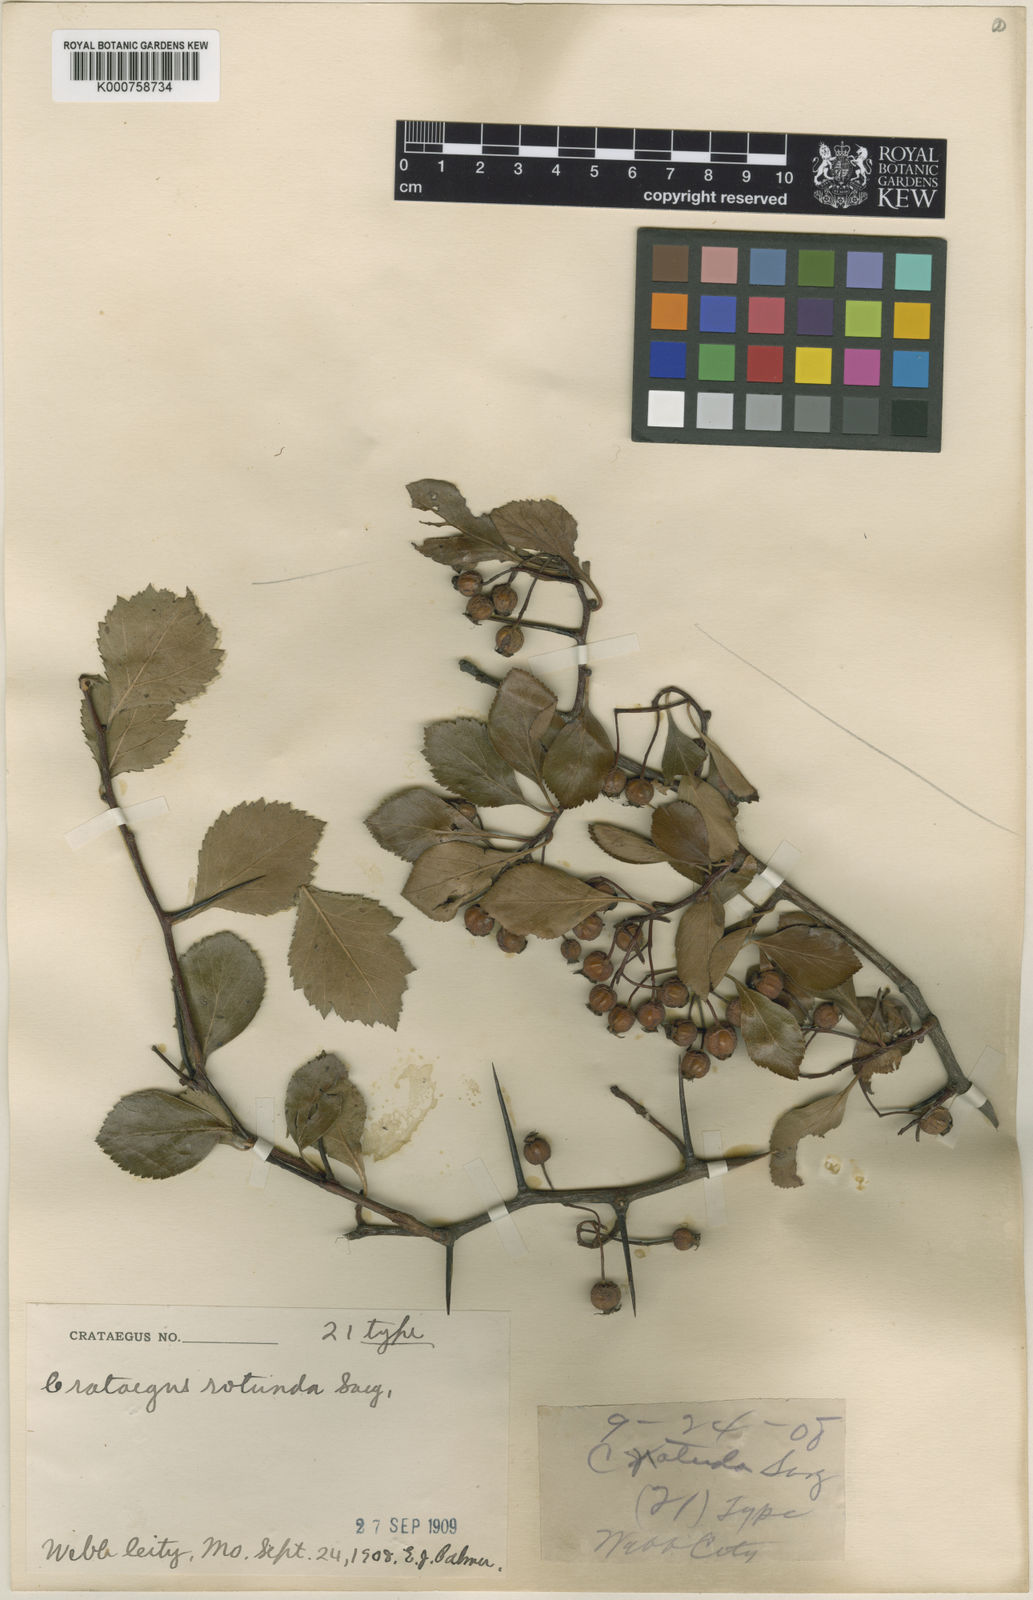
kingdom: Plantae
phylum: Tracheophyta
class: Magnoliopsida
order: Rosales
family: Rosaceae
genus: Crataegus
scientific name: Crataegus dodgei
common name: Dodge's hawthorn
